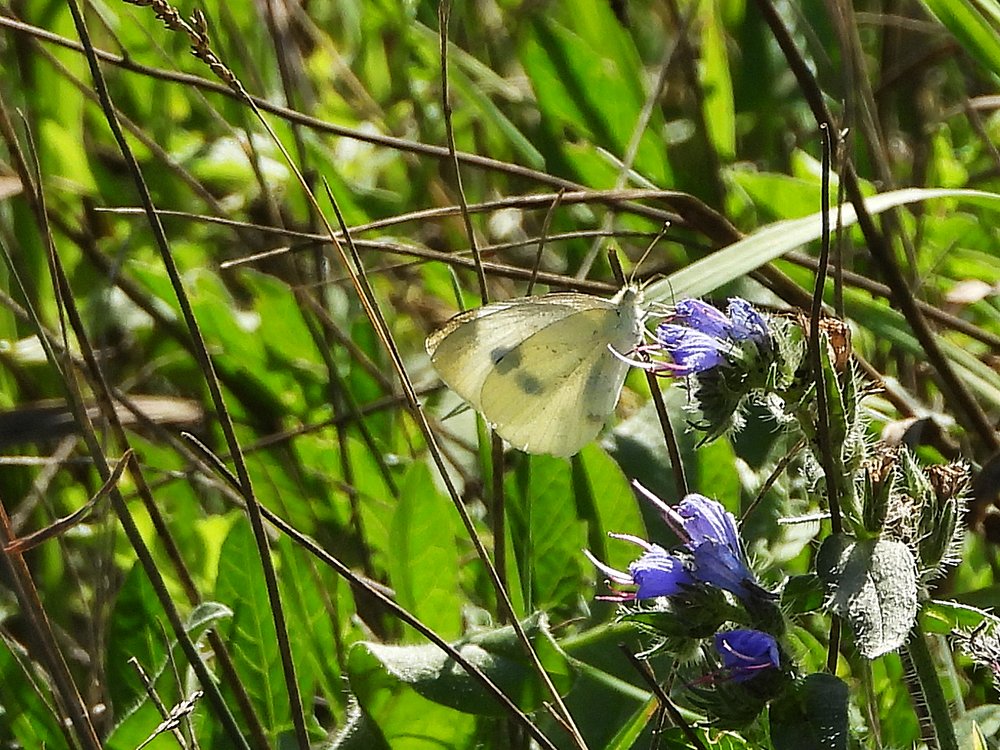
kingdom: Animalia
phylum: Arthropoda
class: Insecta
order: Lepidoptera
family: Pieridae
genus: Pieris
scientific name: Pieris rapae
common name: Cabbage White
